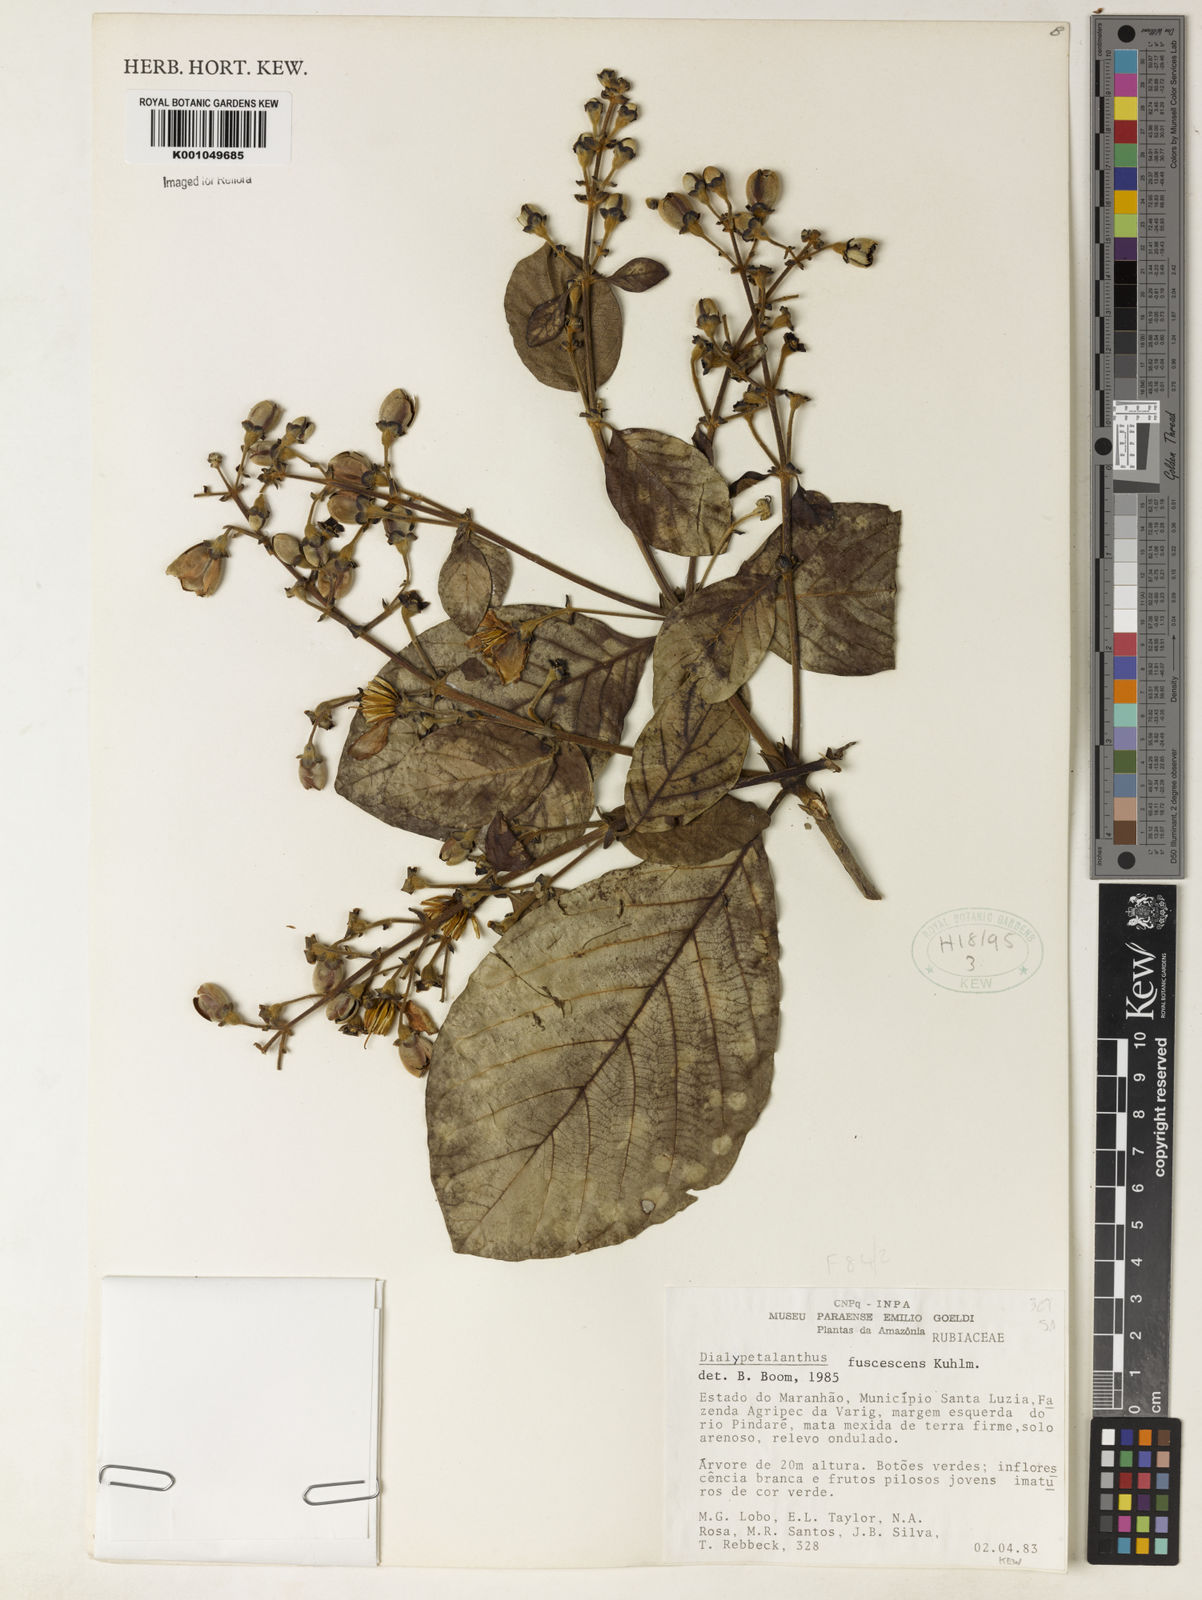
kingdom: Plantae
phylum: Tracheophyta
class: Magnoliopsida
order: Gentianales
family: Rubiaceae
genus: Dialypetalanthus
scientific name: Dialypetalanthus fuscescens
